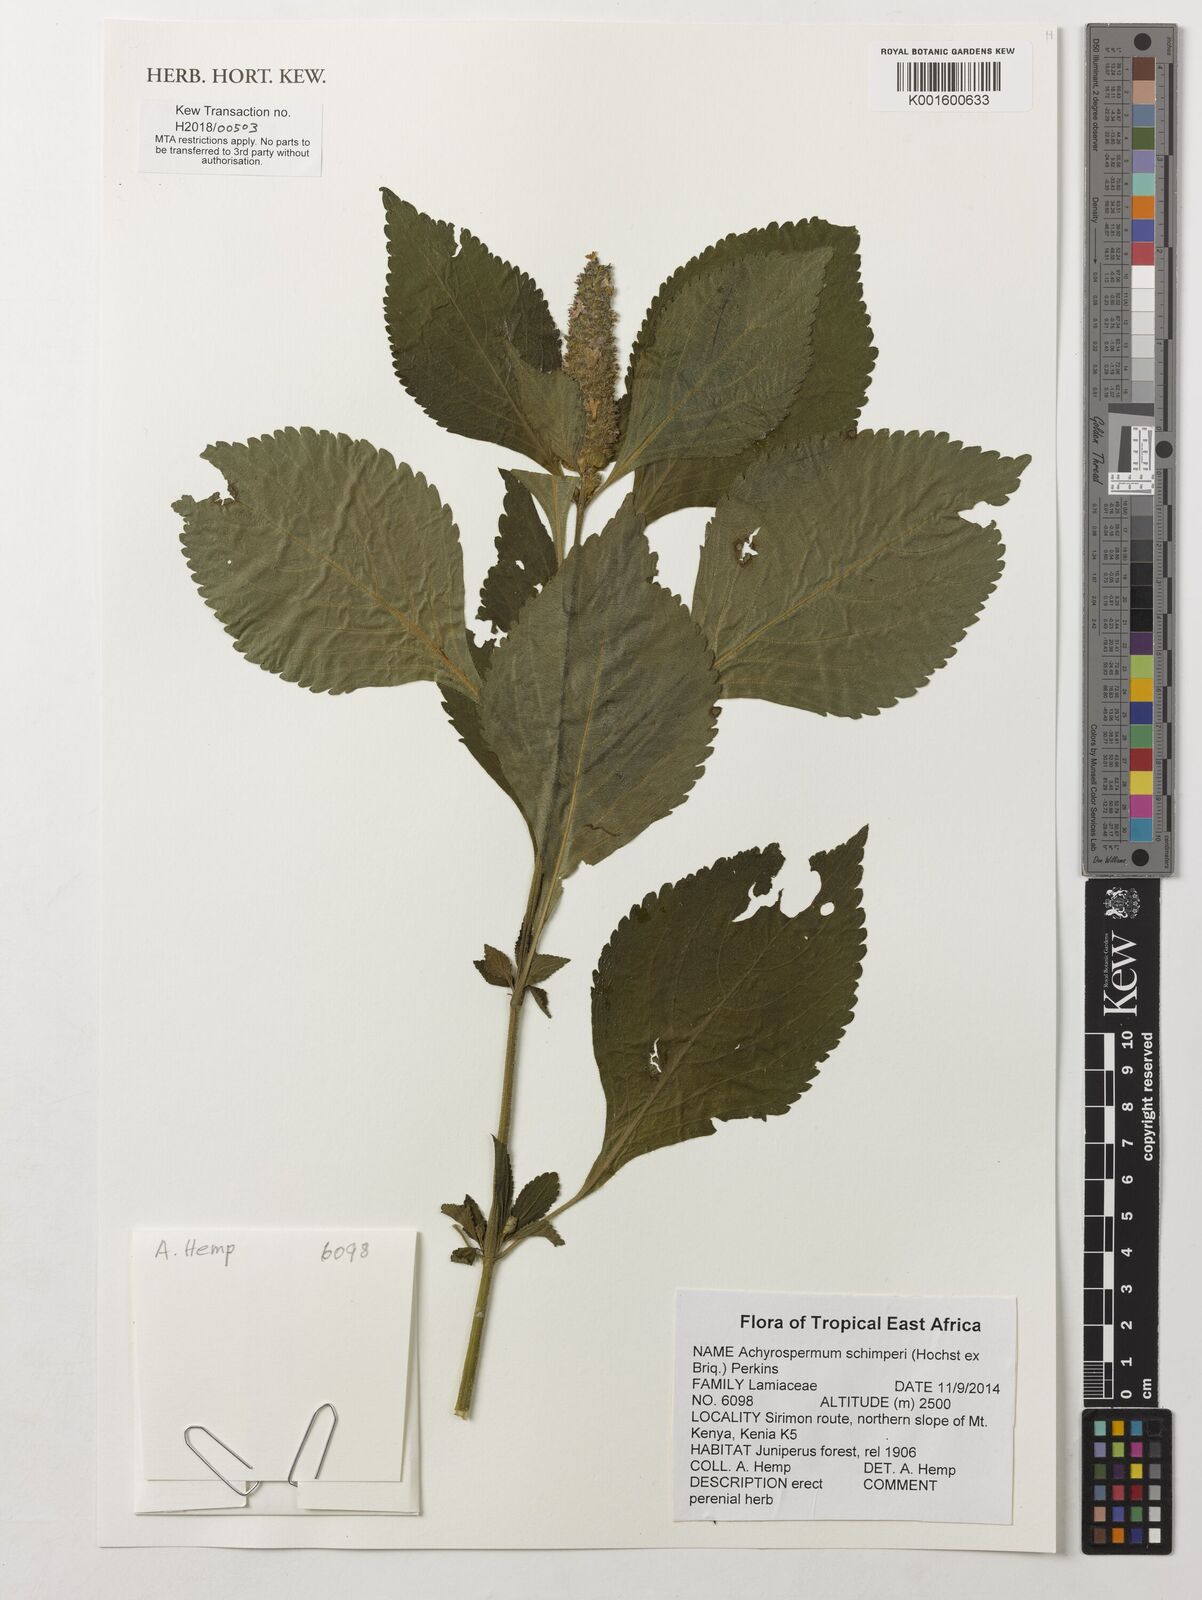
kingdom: Plantae
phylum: Tracheophyta
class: Magnoliopsida
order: Lamiales
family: Lamiaceae
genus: Achyrospermum
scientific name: Achyrospermum schimperi
